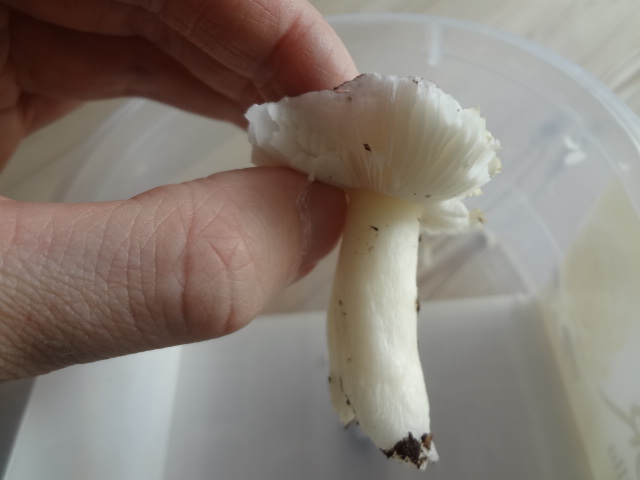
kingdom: Fungi
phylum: Basidiomycota
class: Agaricomycetes
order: Russulales
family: Russulaceae
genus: Russula
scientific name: Russula fragilis
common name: savbladet skørhat
